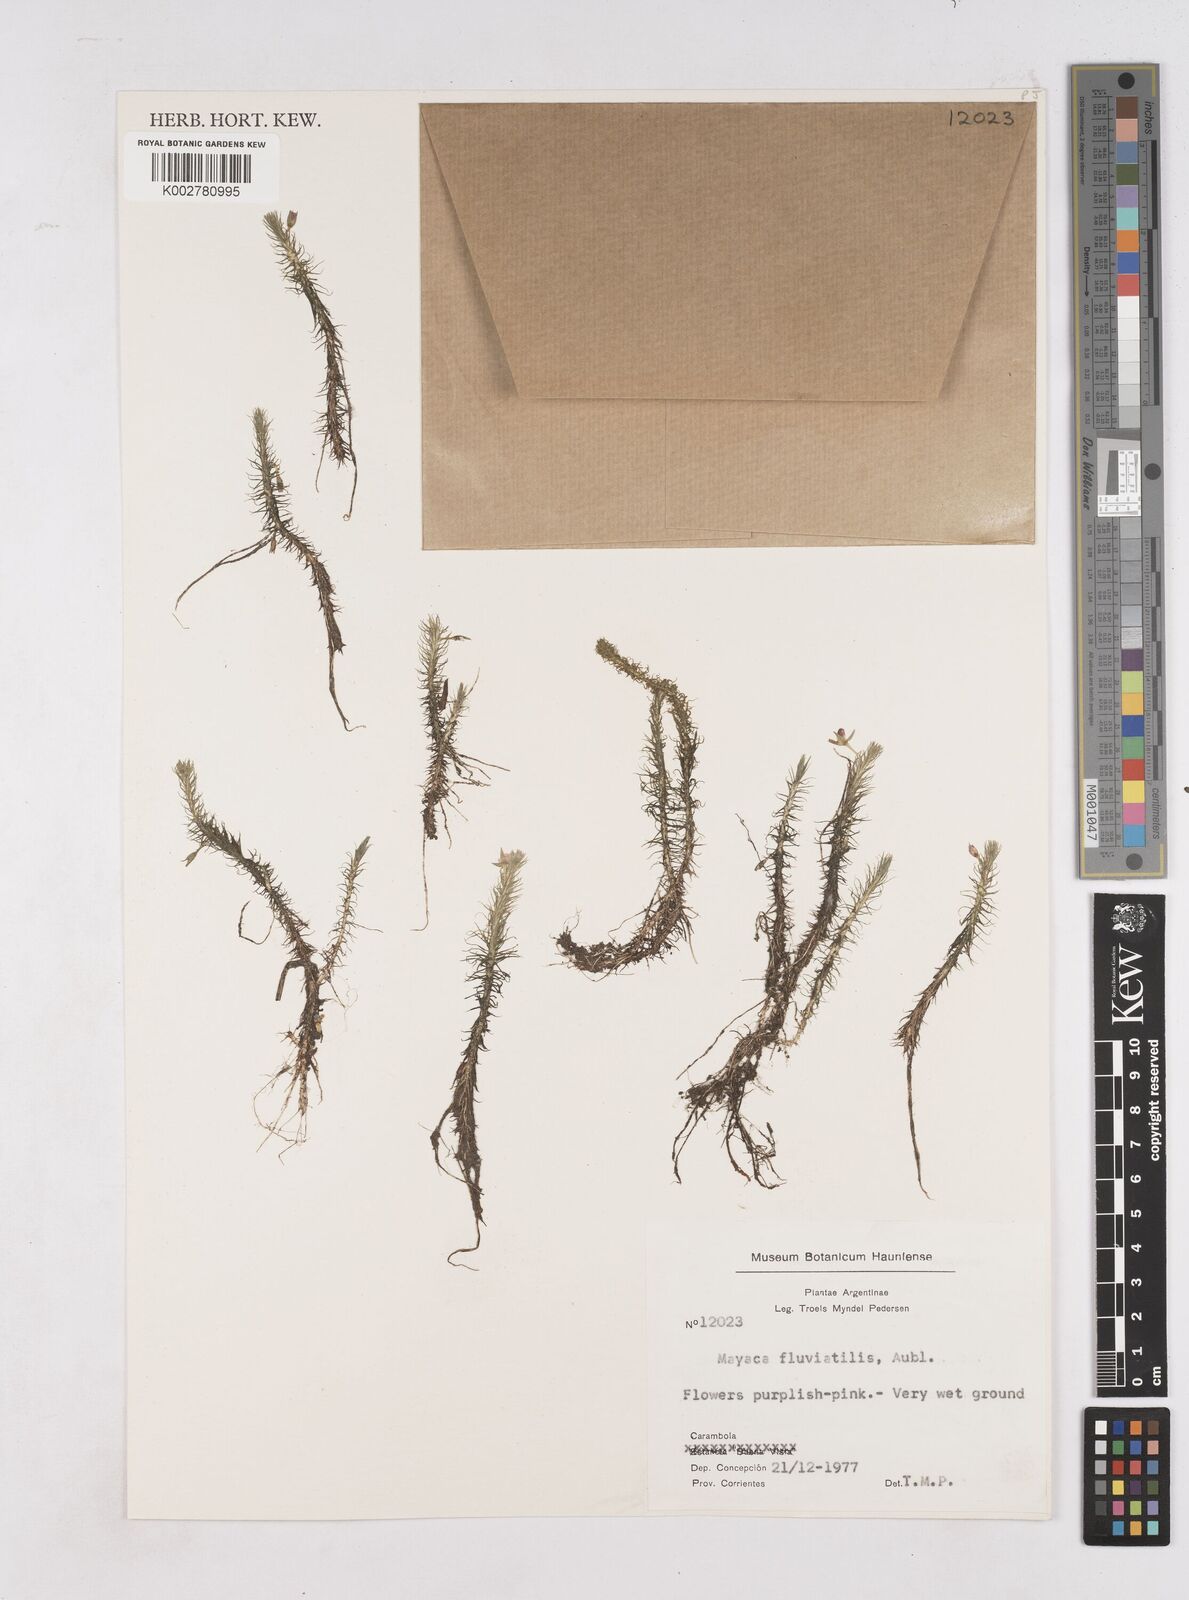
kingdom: Plantae
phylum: Tracheophyta
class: Liliopsida
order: Poales
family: Mayacaceae
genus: Mayaca
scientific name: Mayaca fluviatilis
